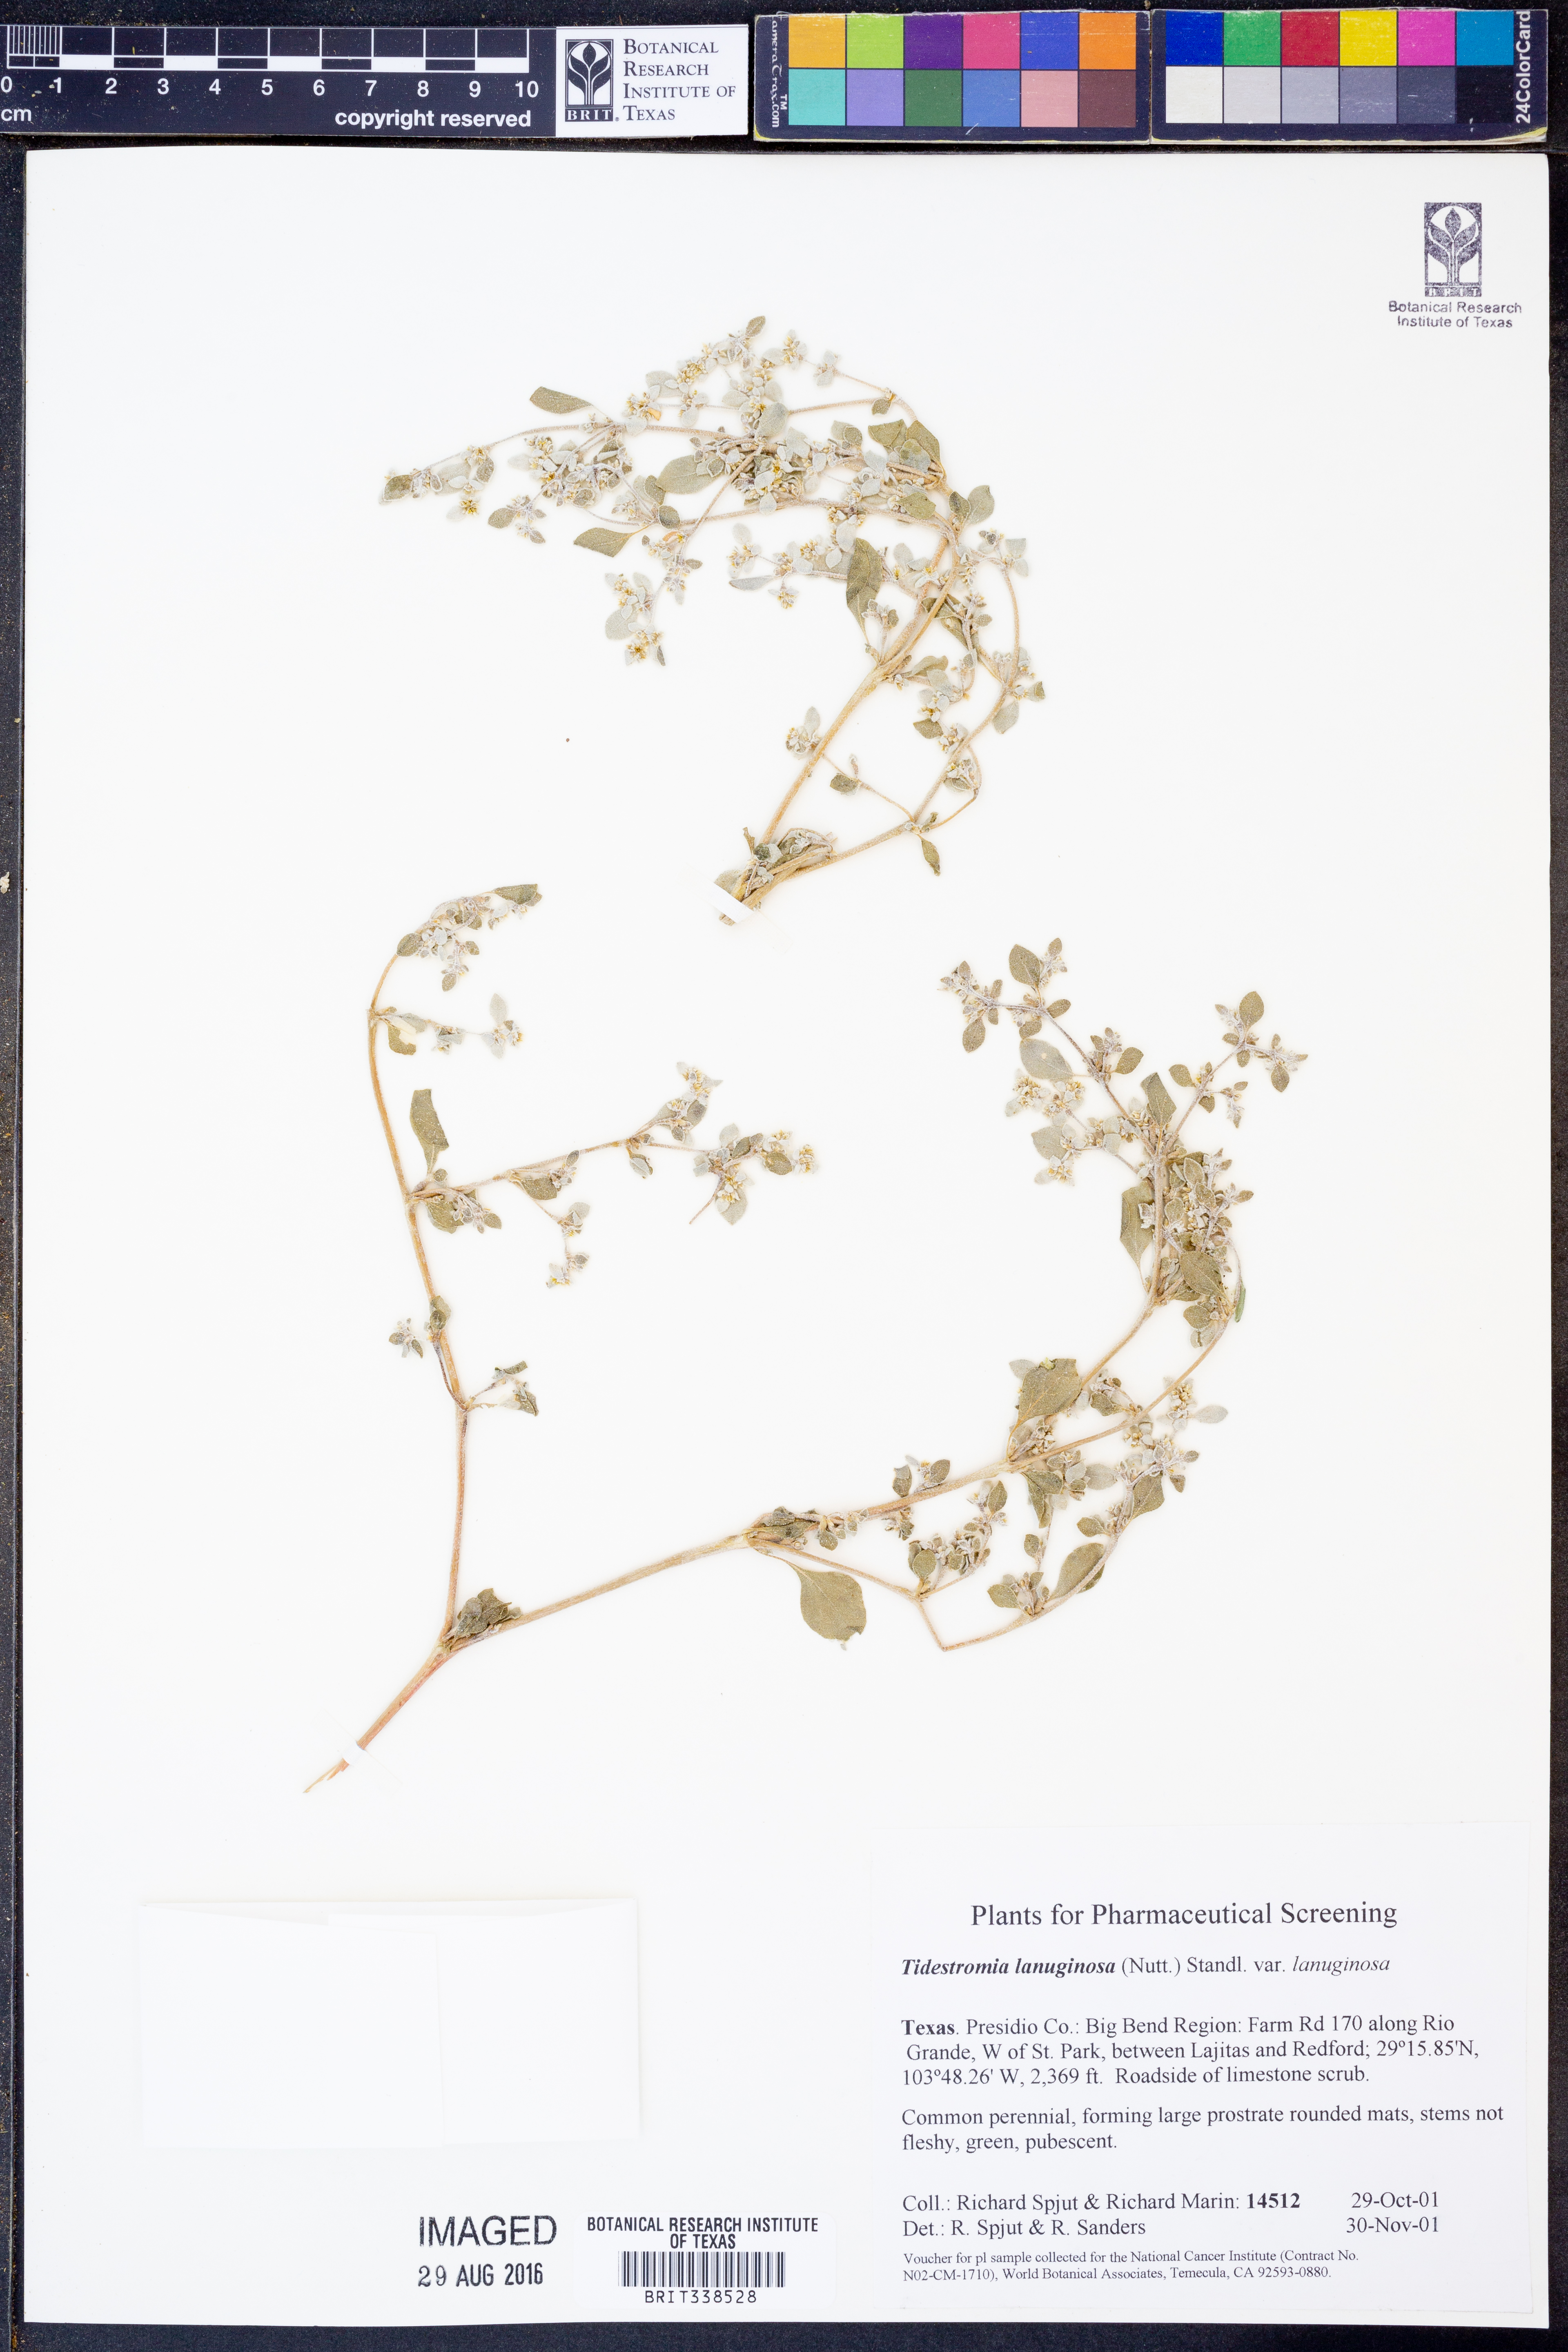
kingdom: Plantae
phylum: Tracheophyta
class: Magnoliopsida
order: Caryophyllales
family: Amaranthaceae
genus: Tidestromia
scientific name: Tidestromia lanuginosa
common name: Woolly tidestromia
